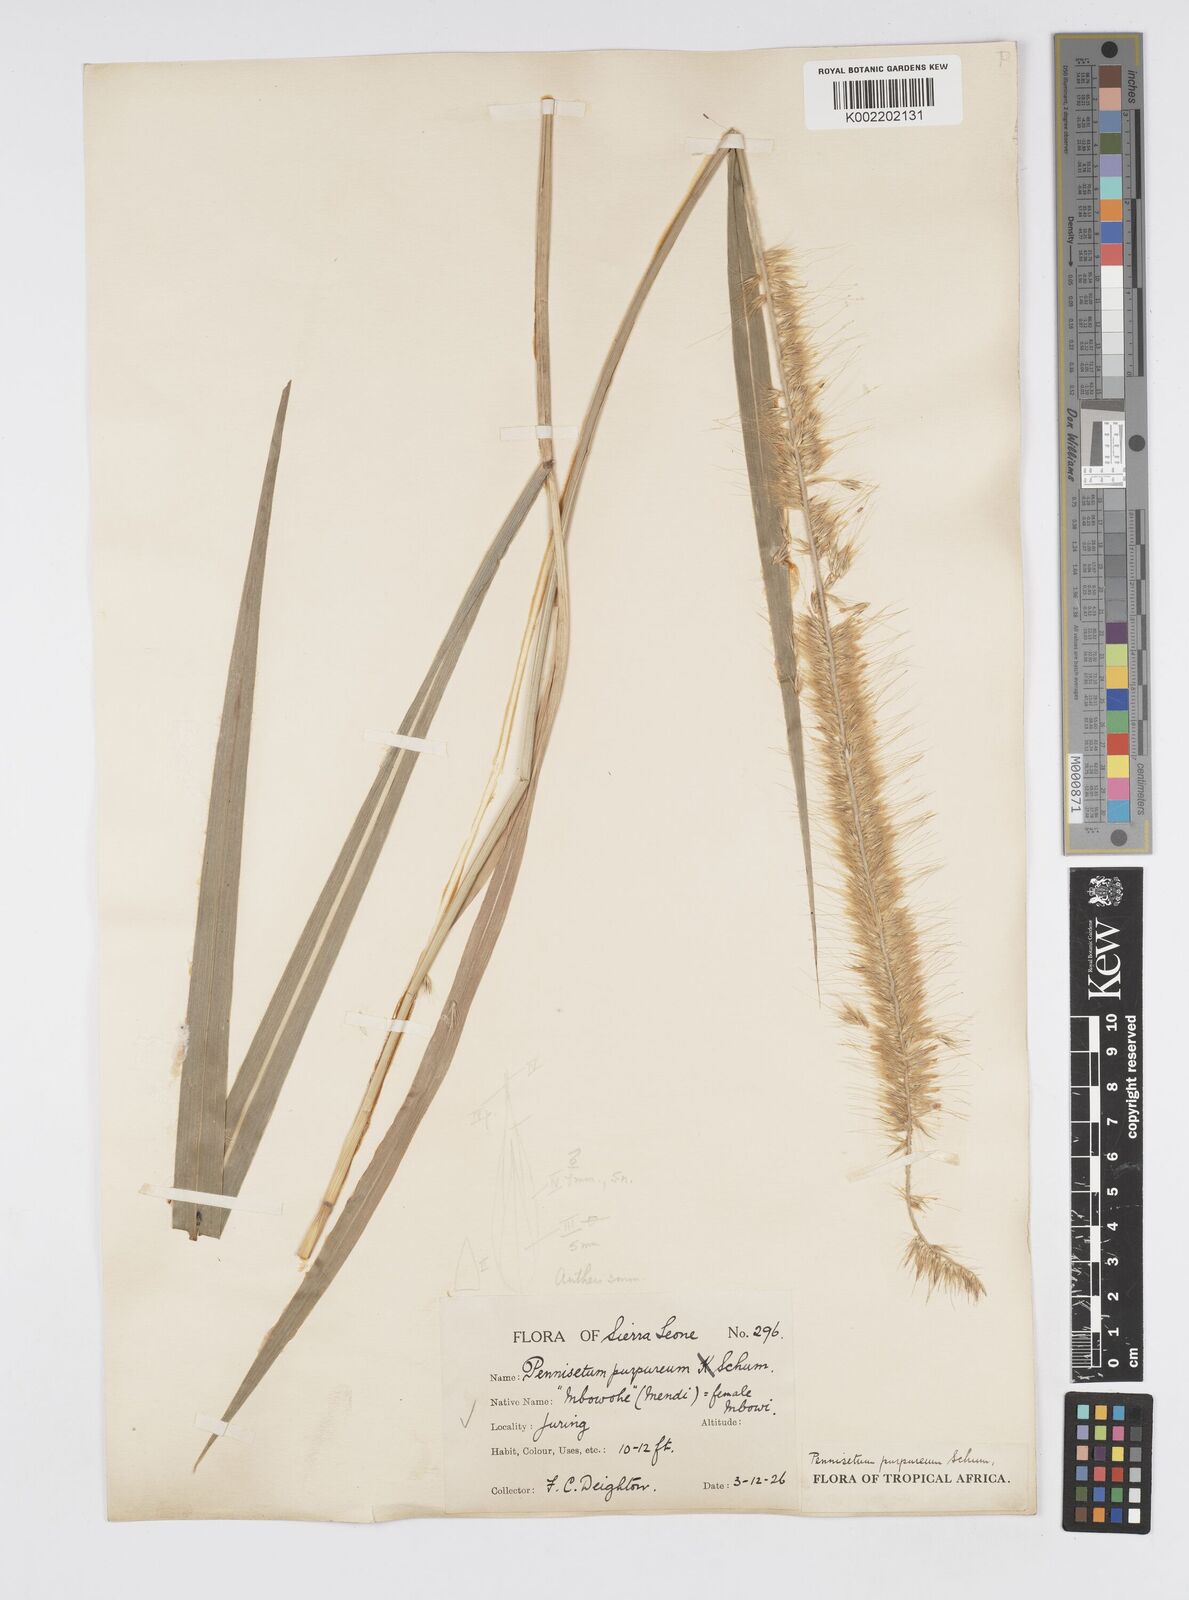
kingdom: Plantae
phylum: Tracheophyta
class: Liliopsida
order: Poales
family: Poaceae
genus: Cenchrus
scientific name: Cenchrus purpureus
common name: Elephant grass
